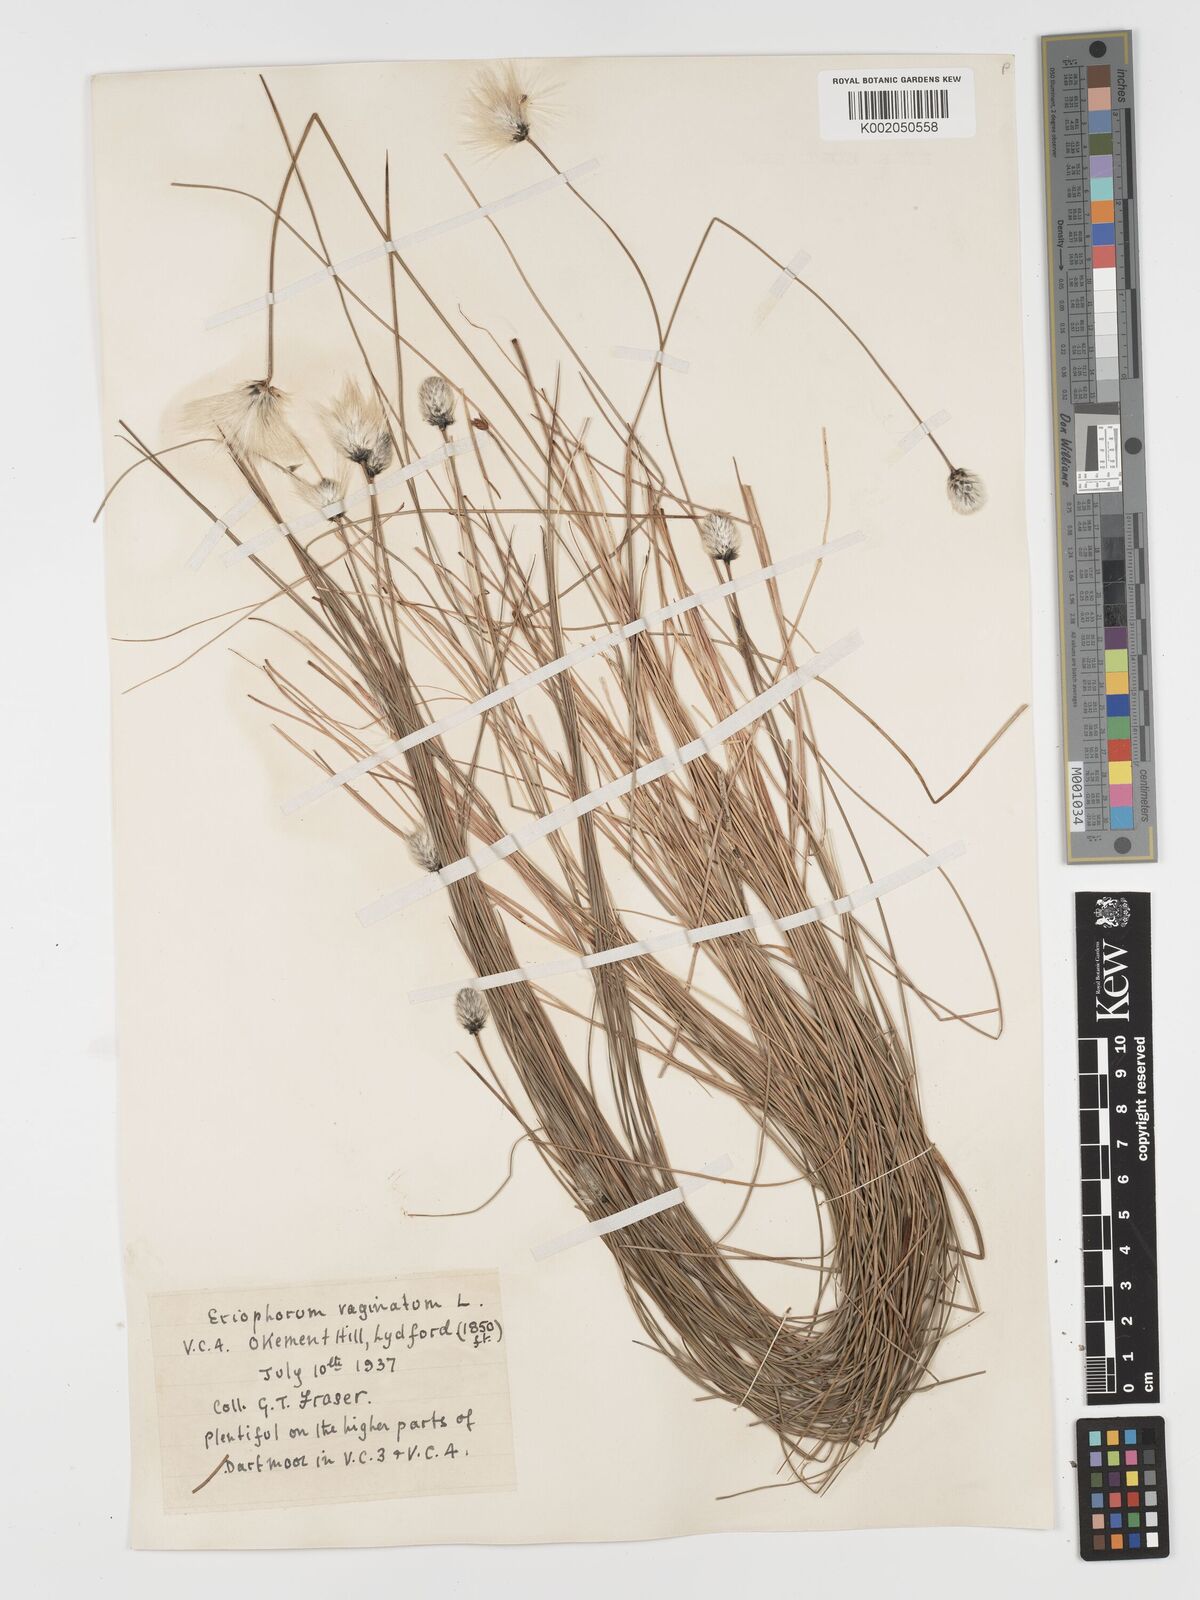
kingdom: Plantae
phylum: Tracheophyta
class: Liliopsida
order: Poales
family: Cyperaceae
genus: Eriophorum
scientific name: Eriophorum vaginatum
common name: Hare's-tail cottongrass
